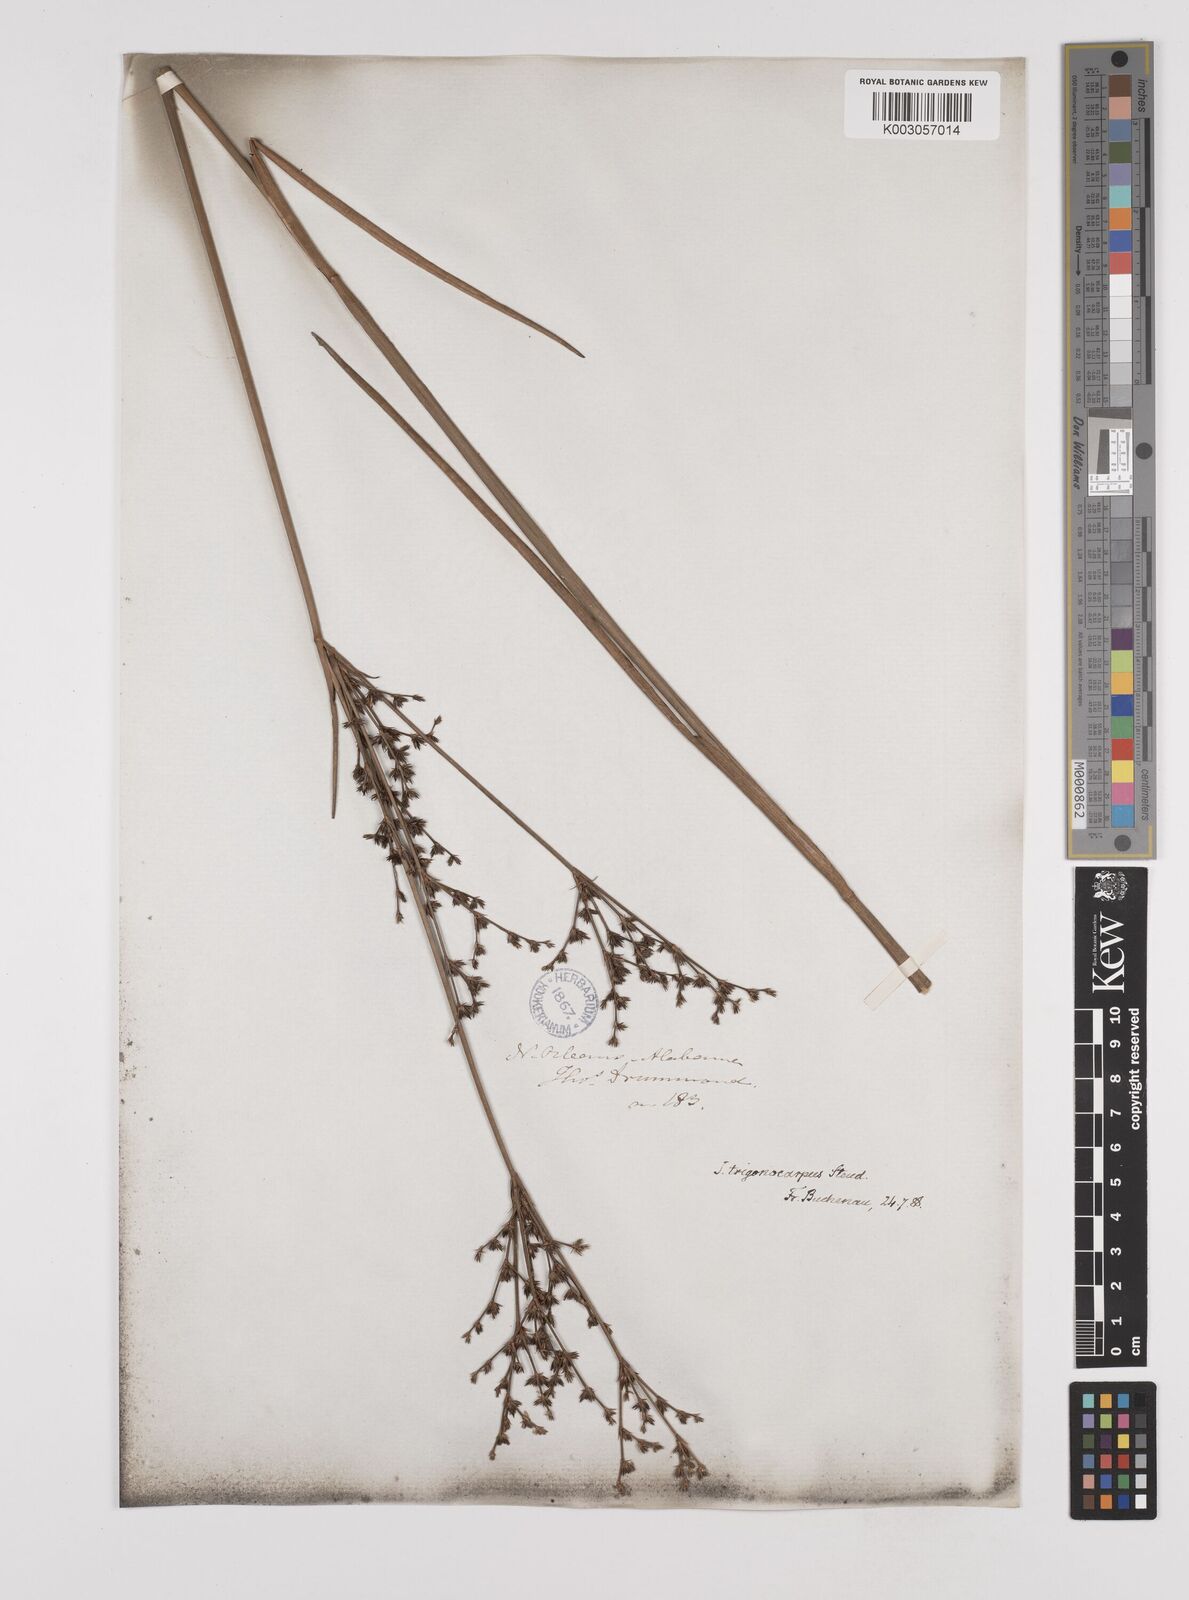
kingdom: Plantae
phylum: Tracheophyta
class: Liliopsida
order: Poales
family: Juncaceae
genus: Juncus
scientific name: Juncus trigonocarpus
